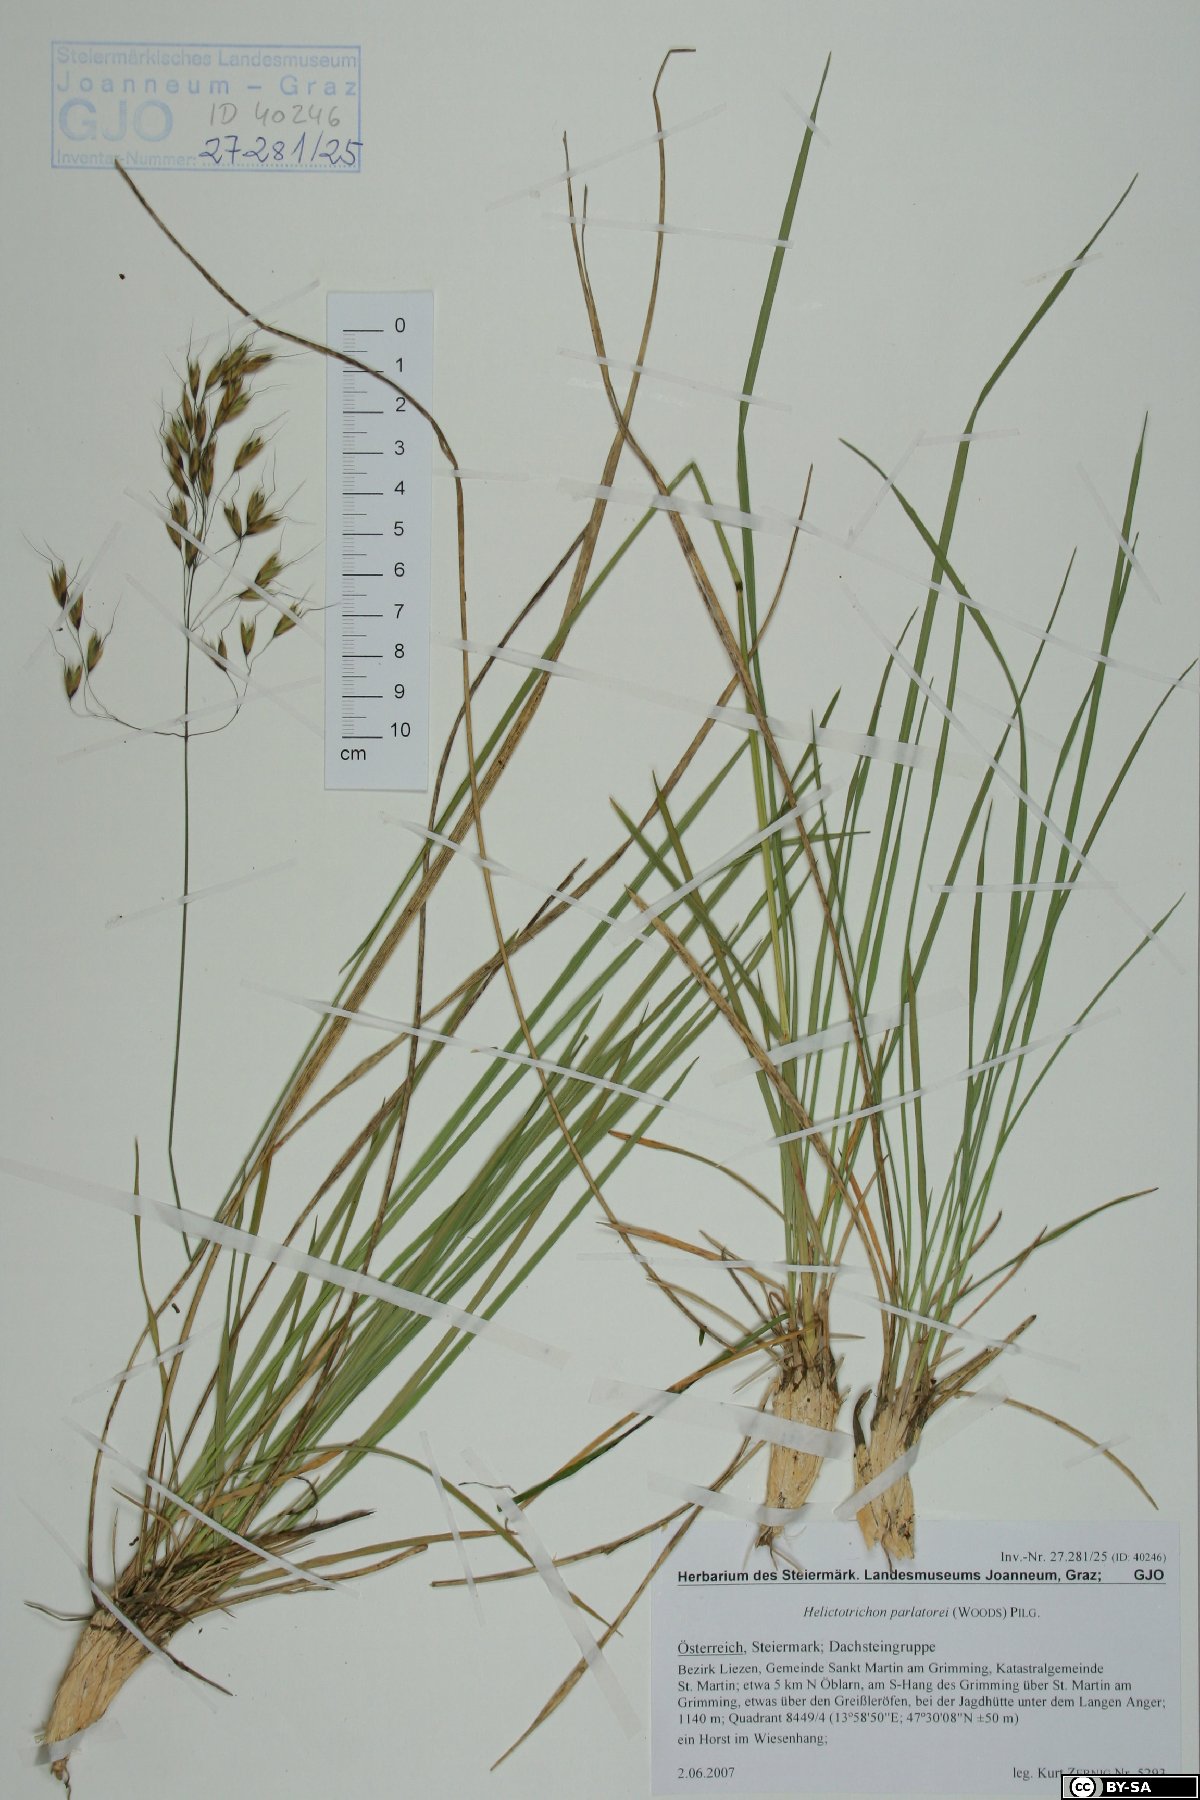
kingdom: Plantae
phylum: Tracheophyta
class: Liliopsida
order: Poales
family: Poaceae
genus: Helictotrichon
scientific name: Helictotrichon parlatorei
